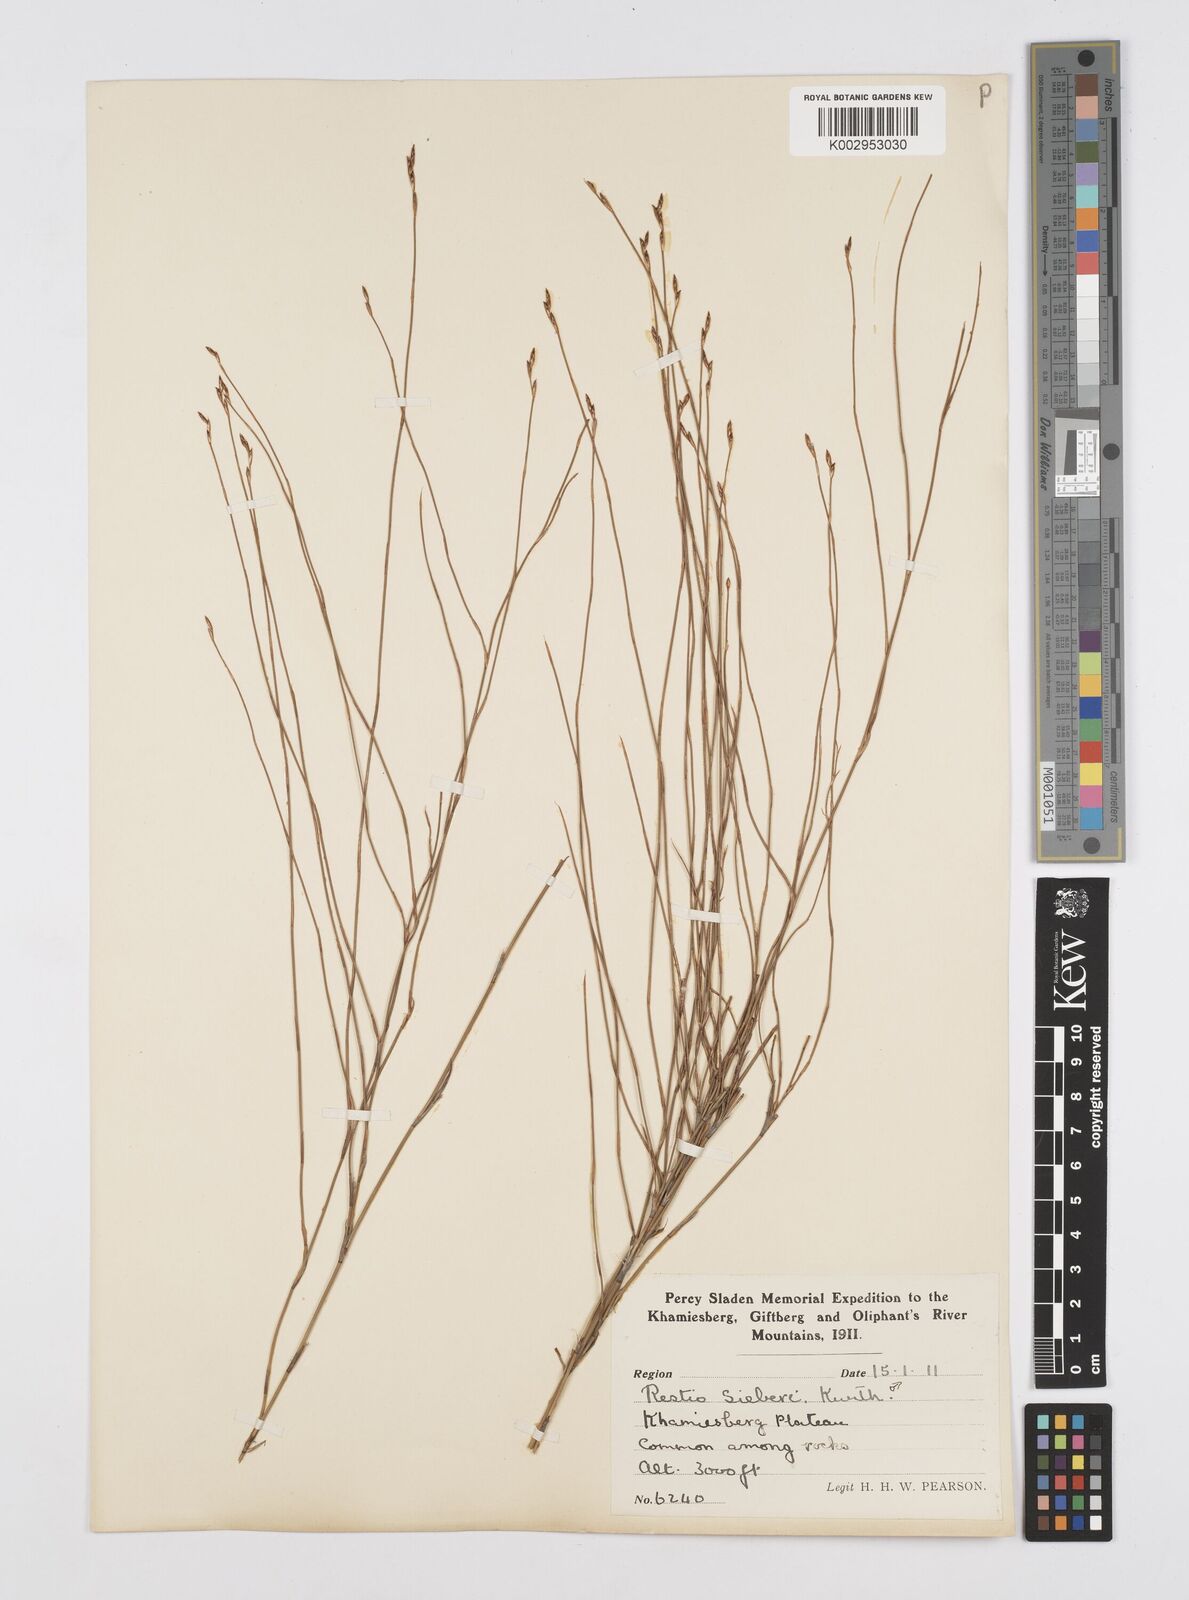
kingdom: Plantae
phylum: Tracheophyta
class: Liliopsida
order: Poales
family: Restionaceae
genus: Restio
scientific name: Restio sieberi
